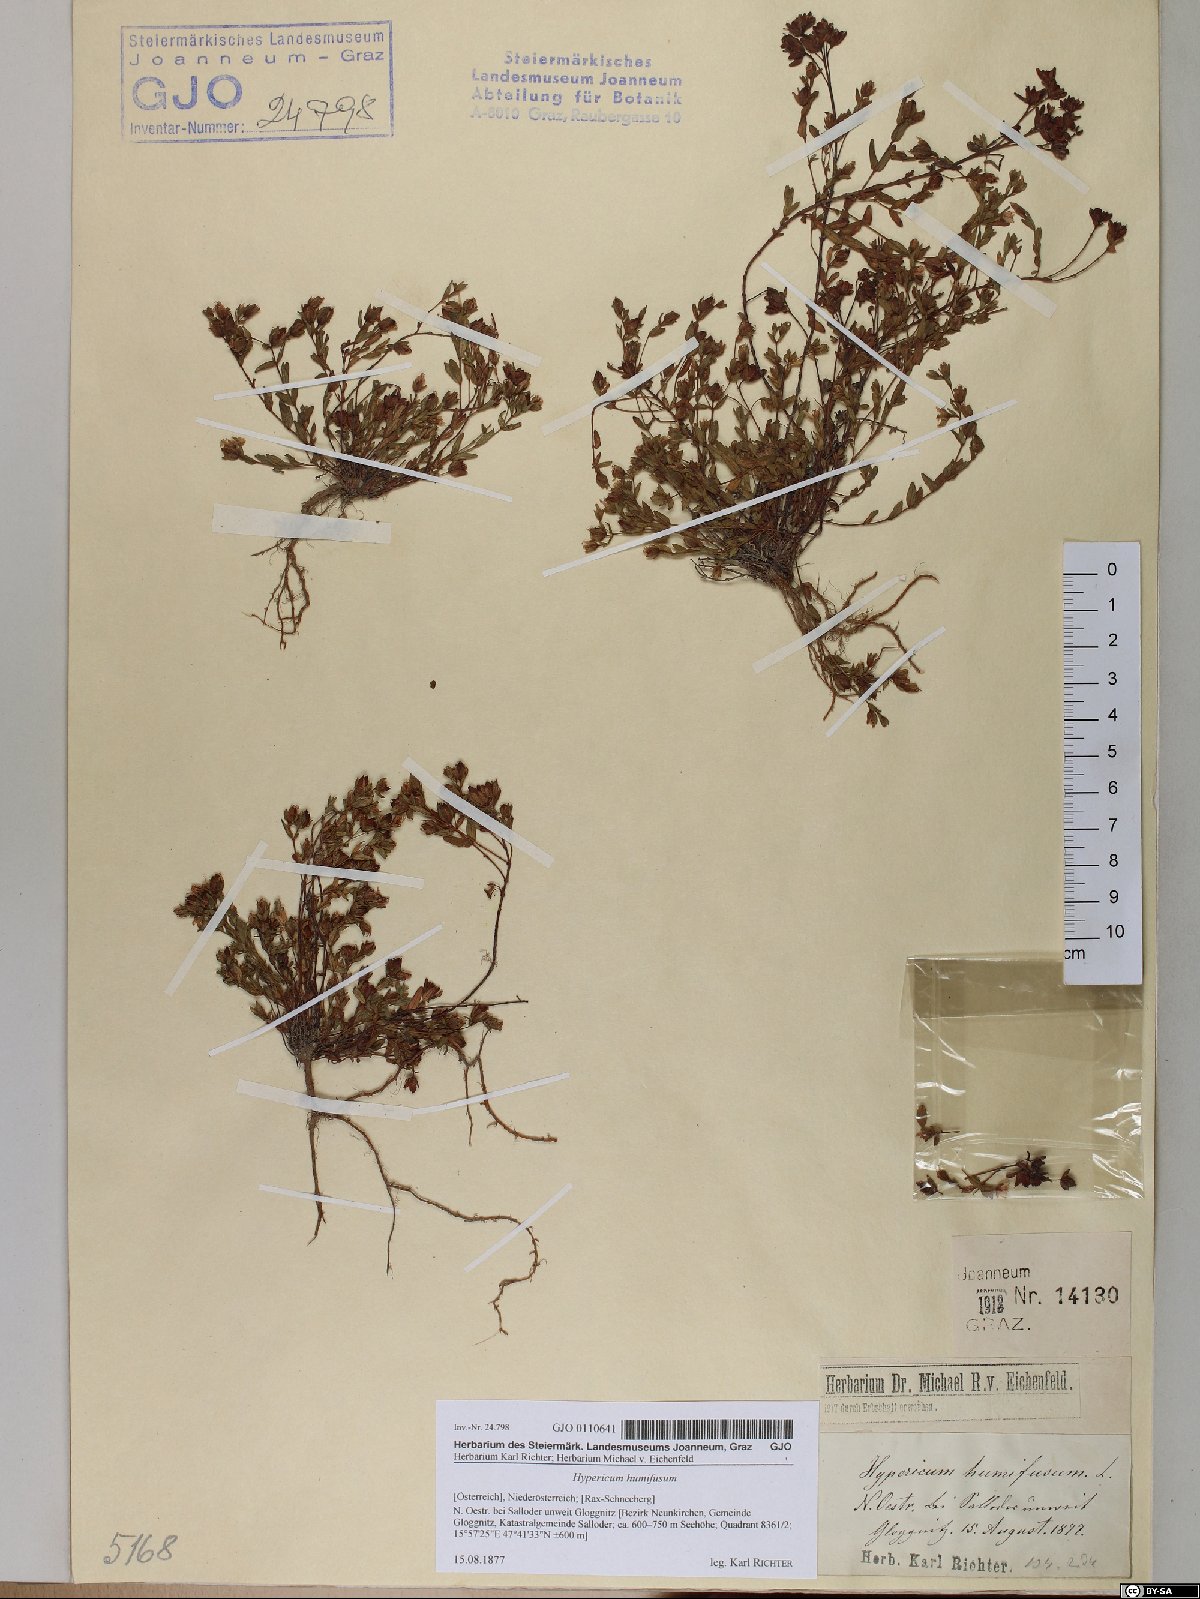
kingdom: Plantae
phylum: Tracheophyta
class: Magnoliopsida
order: Malpighiales
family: Hypericaceae
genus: Hypericum
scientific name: Hypericum humifusum
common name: Trailing st. john's-wort
